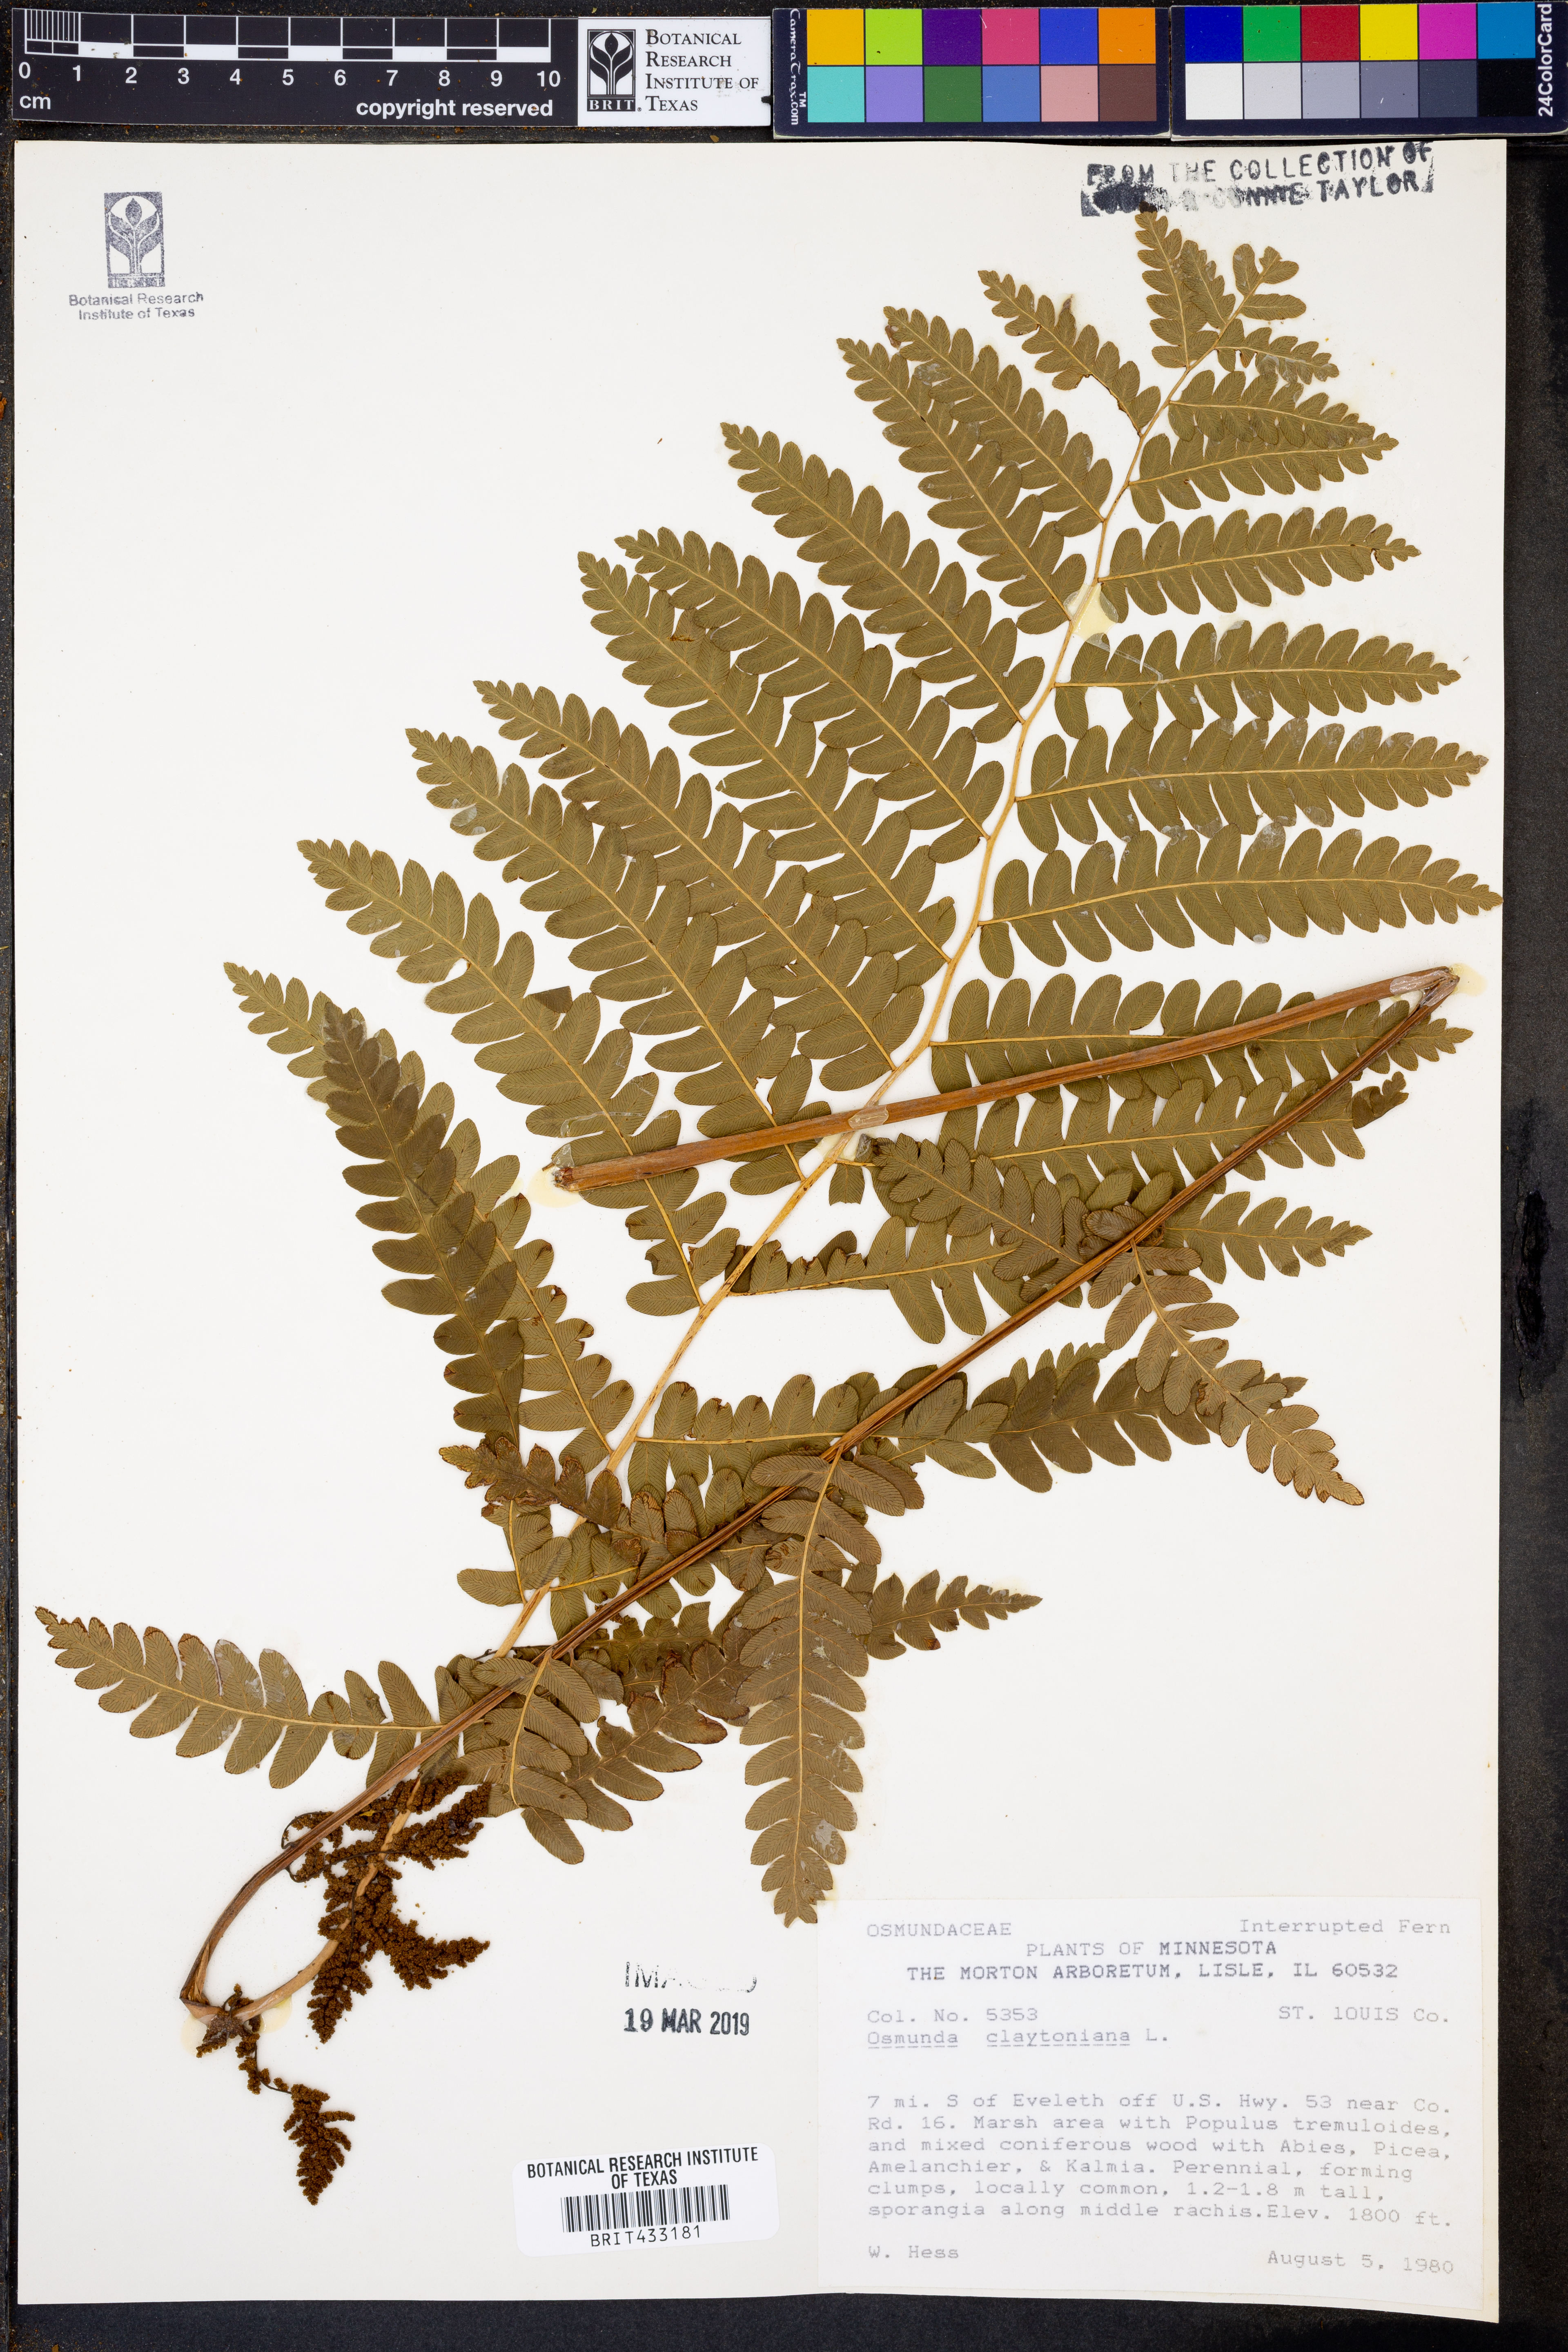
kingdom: Plantae
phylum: Tracheophyta
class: Polypodiopsida
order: Osmundales
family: Osmundaceae
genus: Claytosmunda
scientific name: Claytosmunda claytoniana
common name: Clayton's fern
